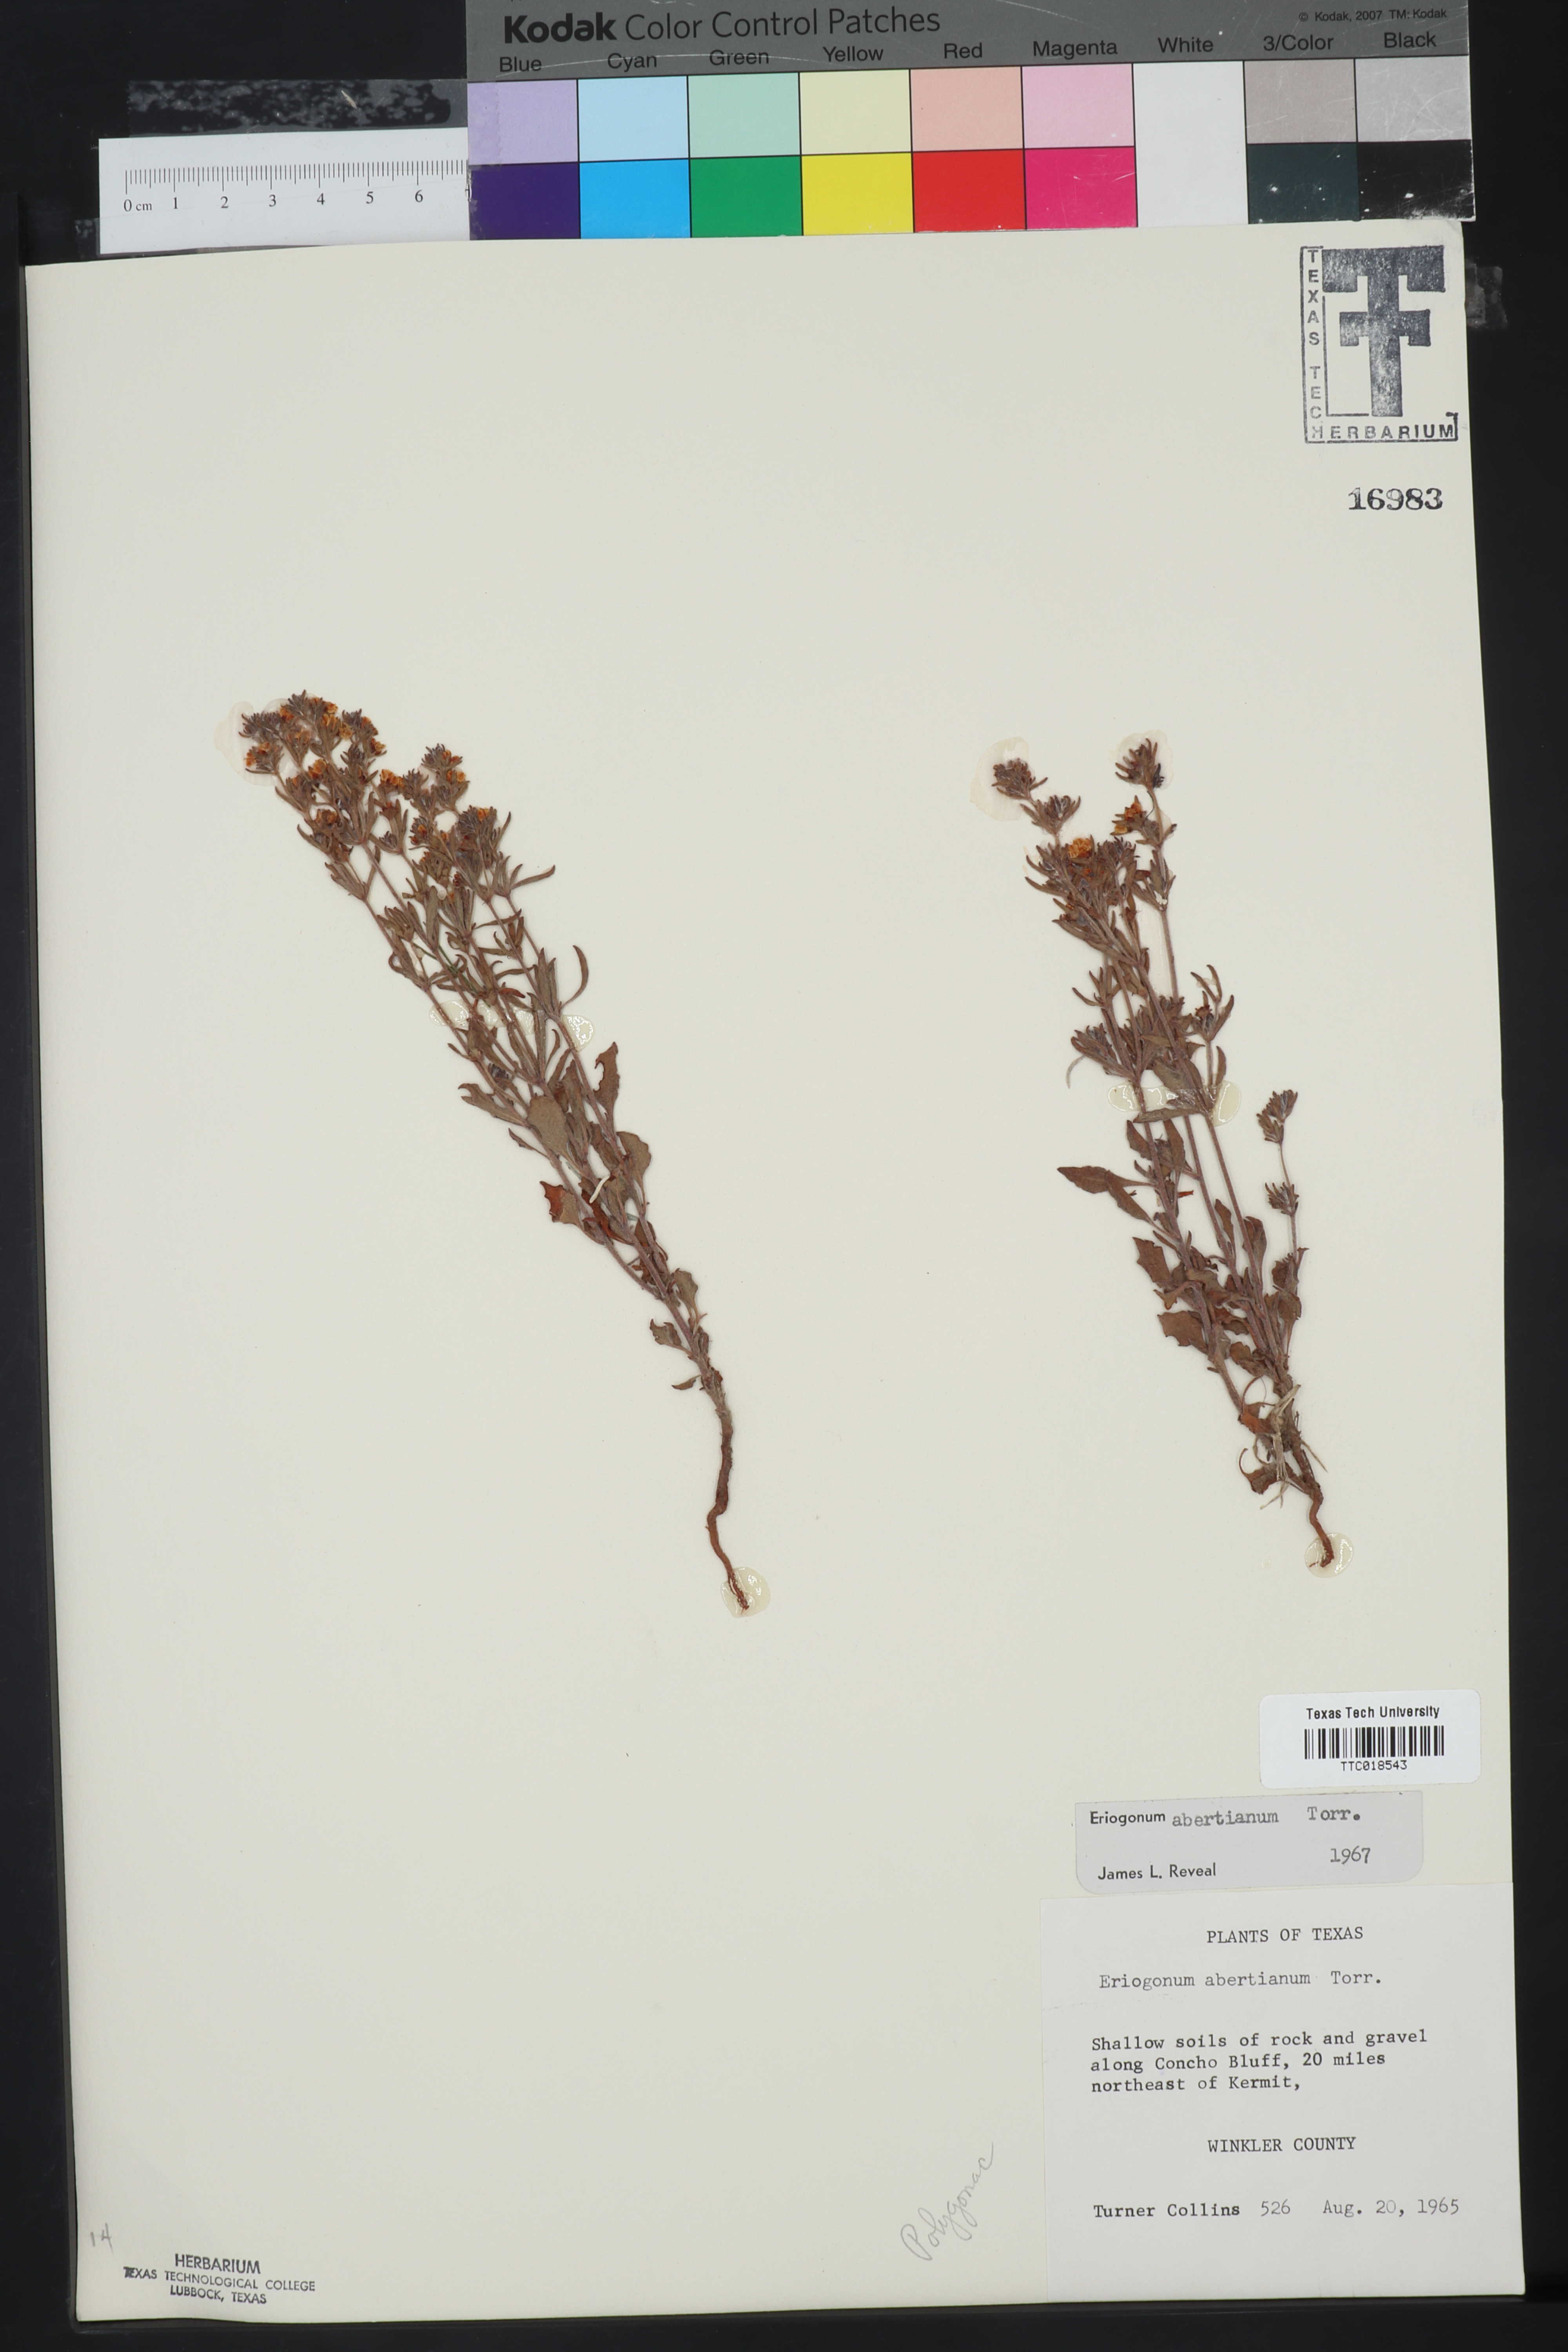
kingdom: Plantae
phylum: Tracheophyta
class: Magnoliopsida
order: Caryophyllales
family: Polygonaceae
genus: Eriogonum
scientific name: Eriogonum abertianum
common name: Abert's wild buckwheat
